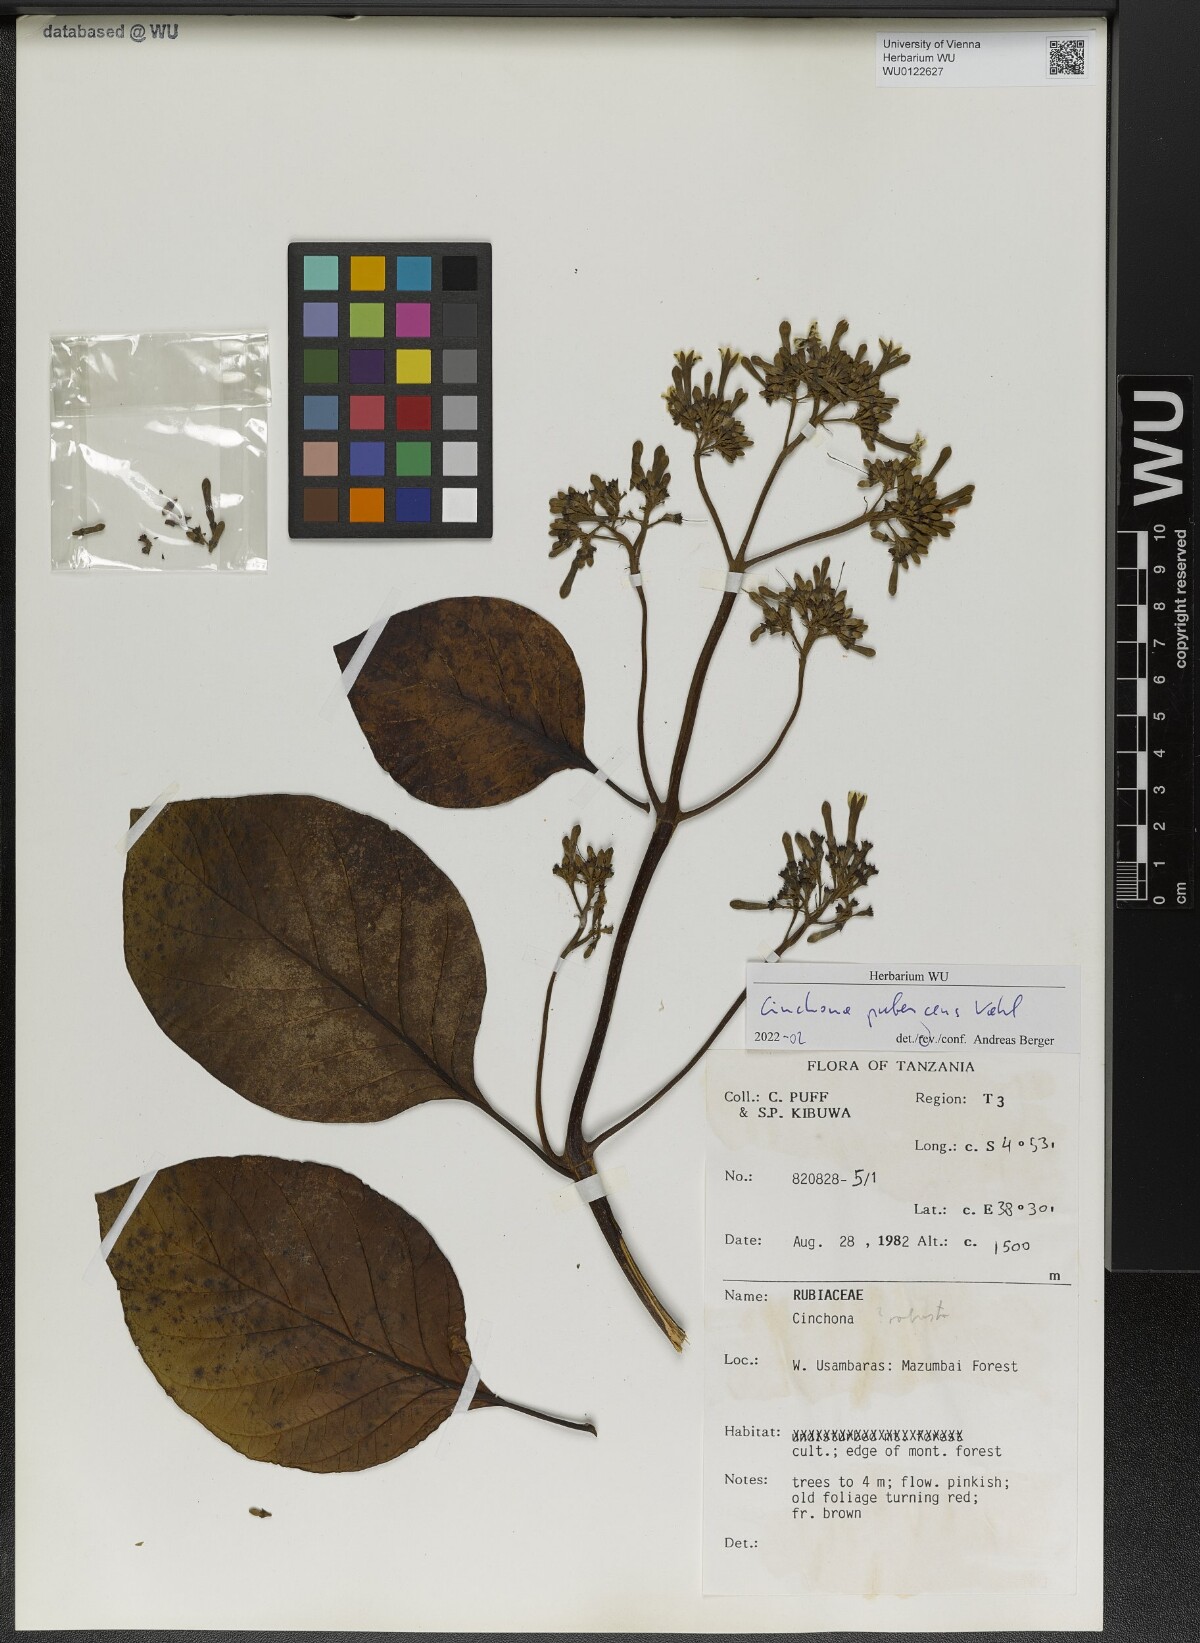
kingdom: Plantae
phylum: Tracheophyta
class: Magnoliopsida
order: Gentianales
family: Rubiaceae
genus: Cinchona
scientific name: Cinchona pubescens
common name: Quinine
